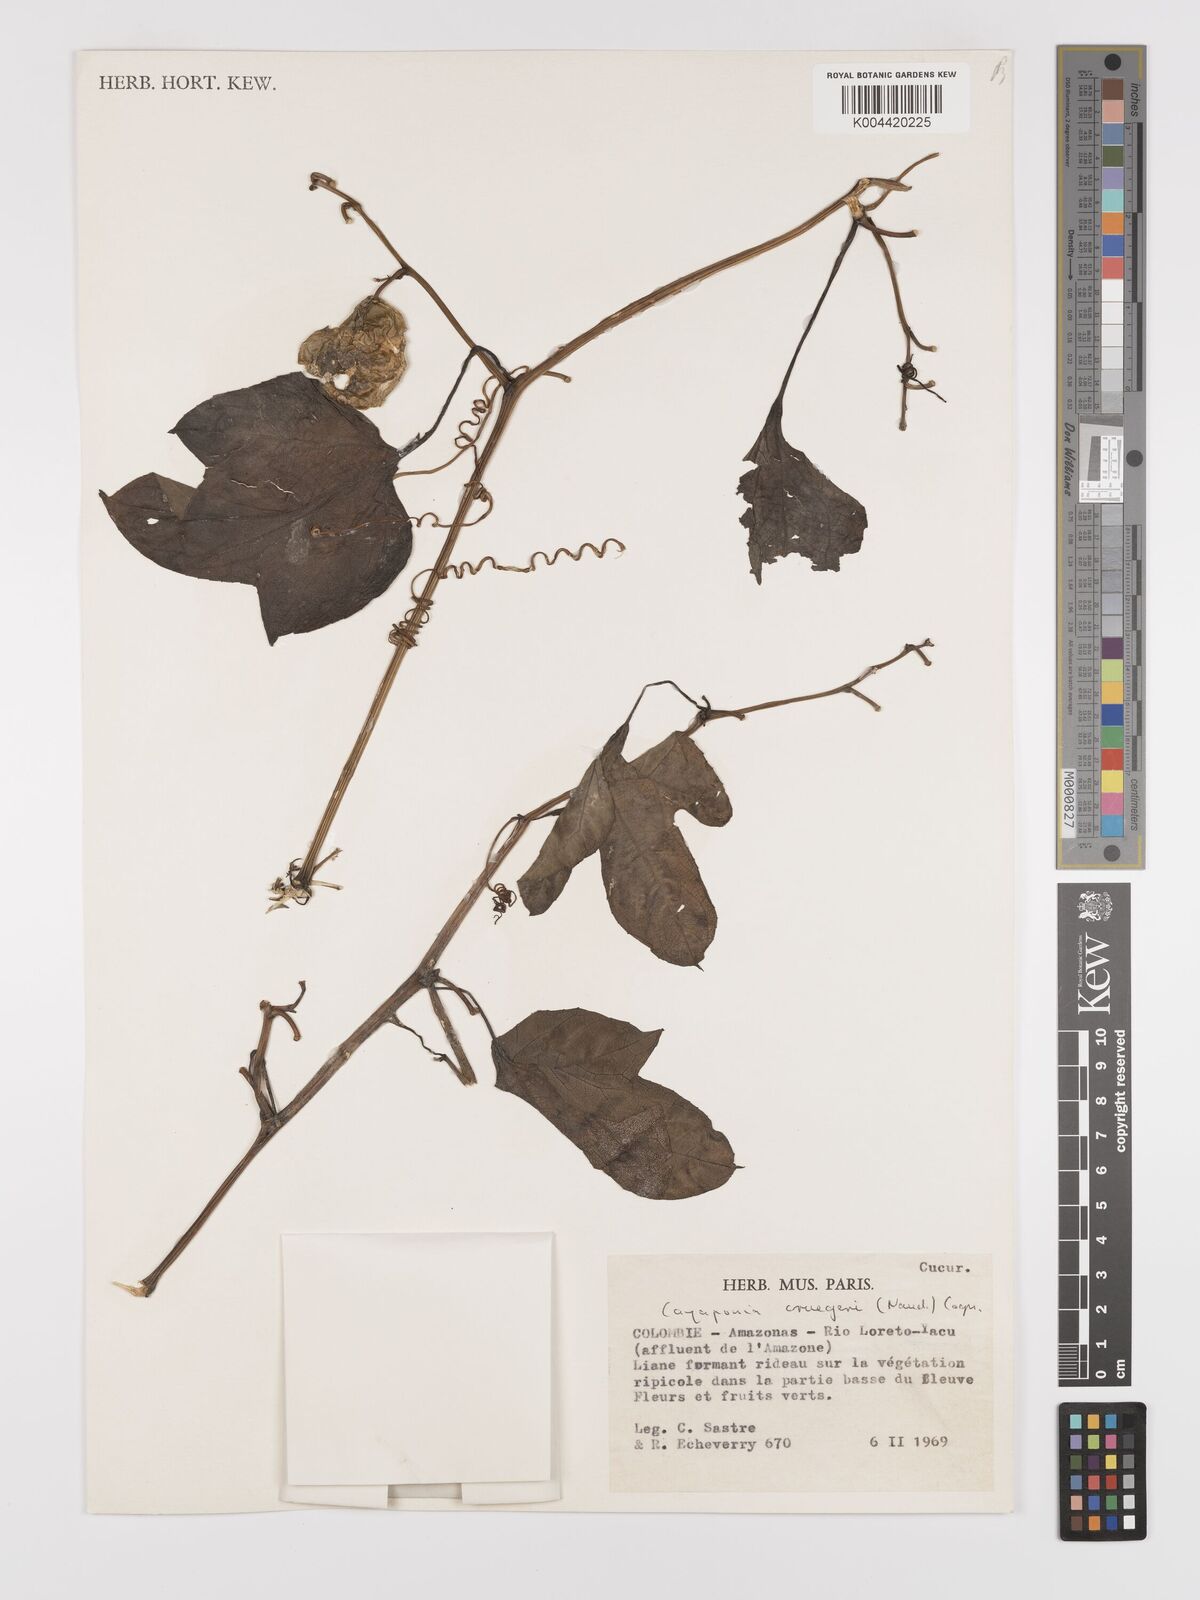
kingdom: Plantae
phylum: Tracheophyta
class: Magnoliopsida
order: Cucurbitales
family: Cucurbitaceae
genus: Cayaponia
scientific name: Cayaponia cruegeri
